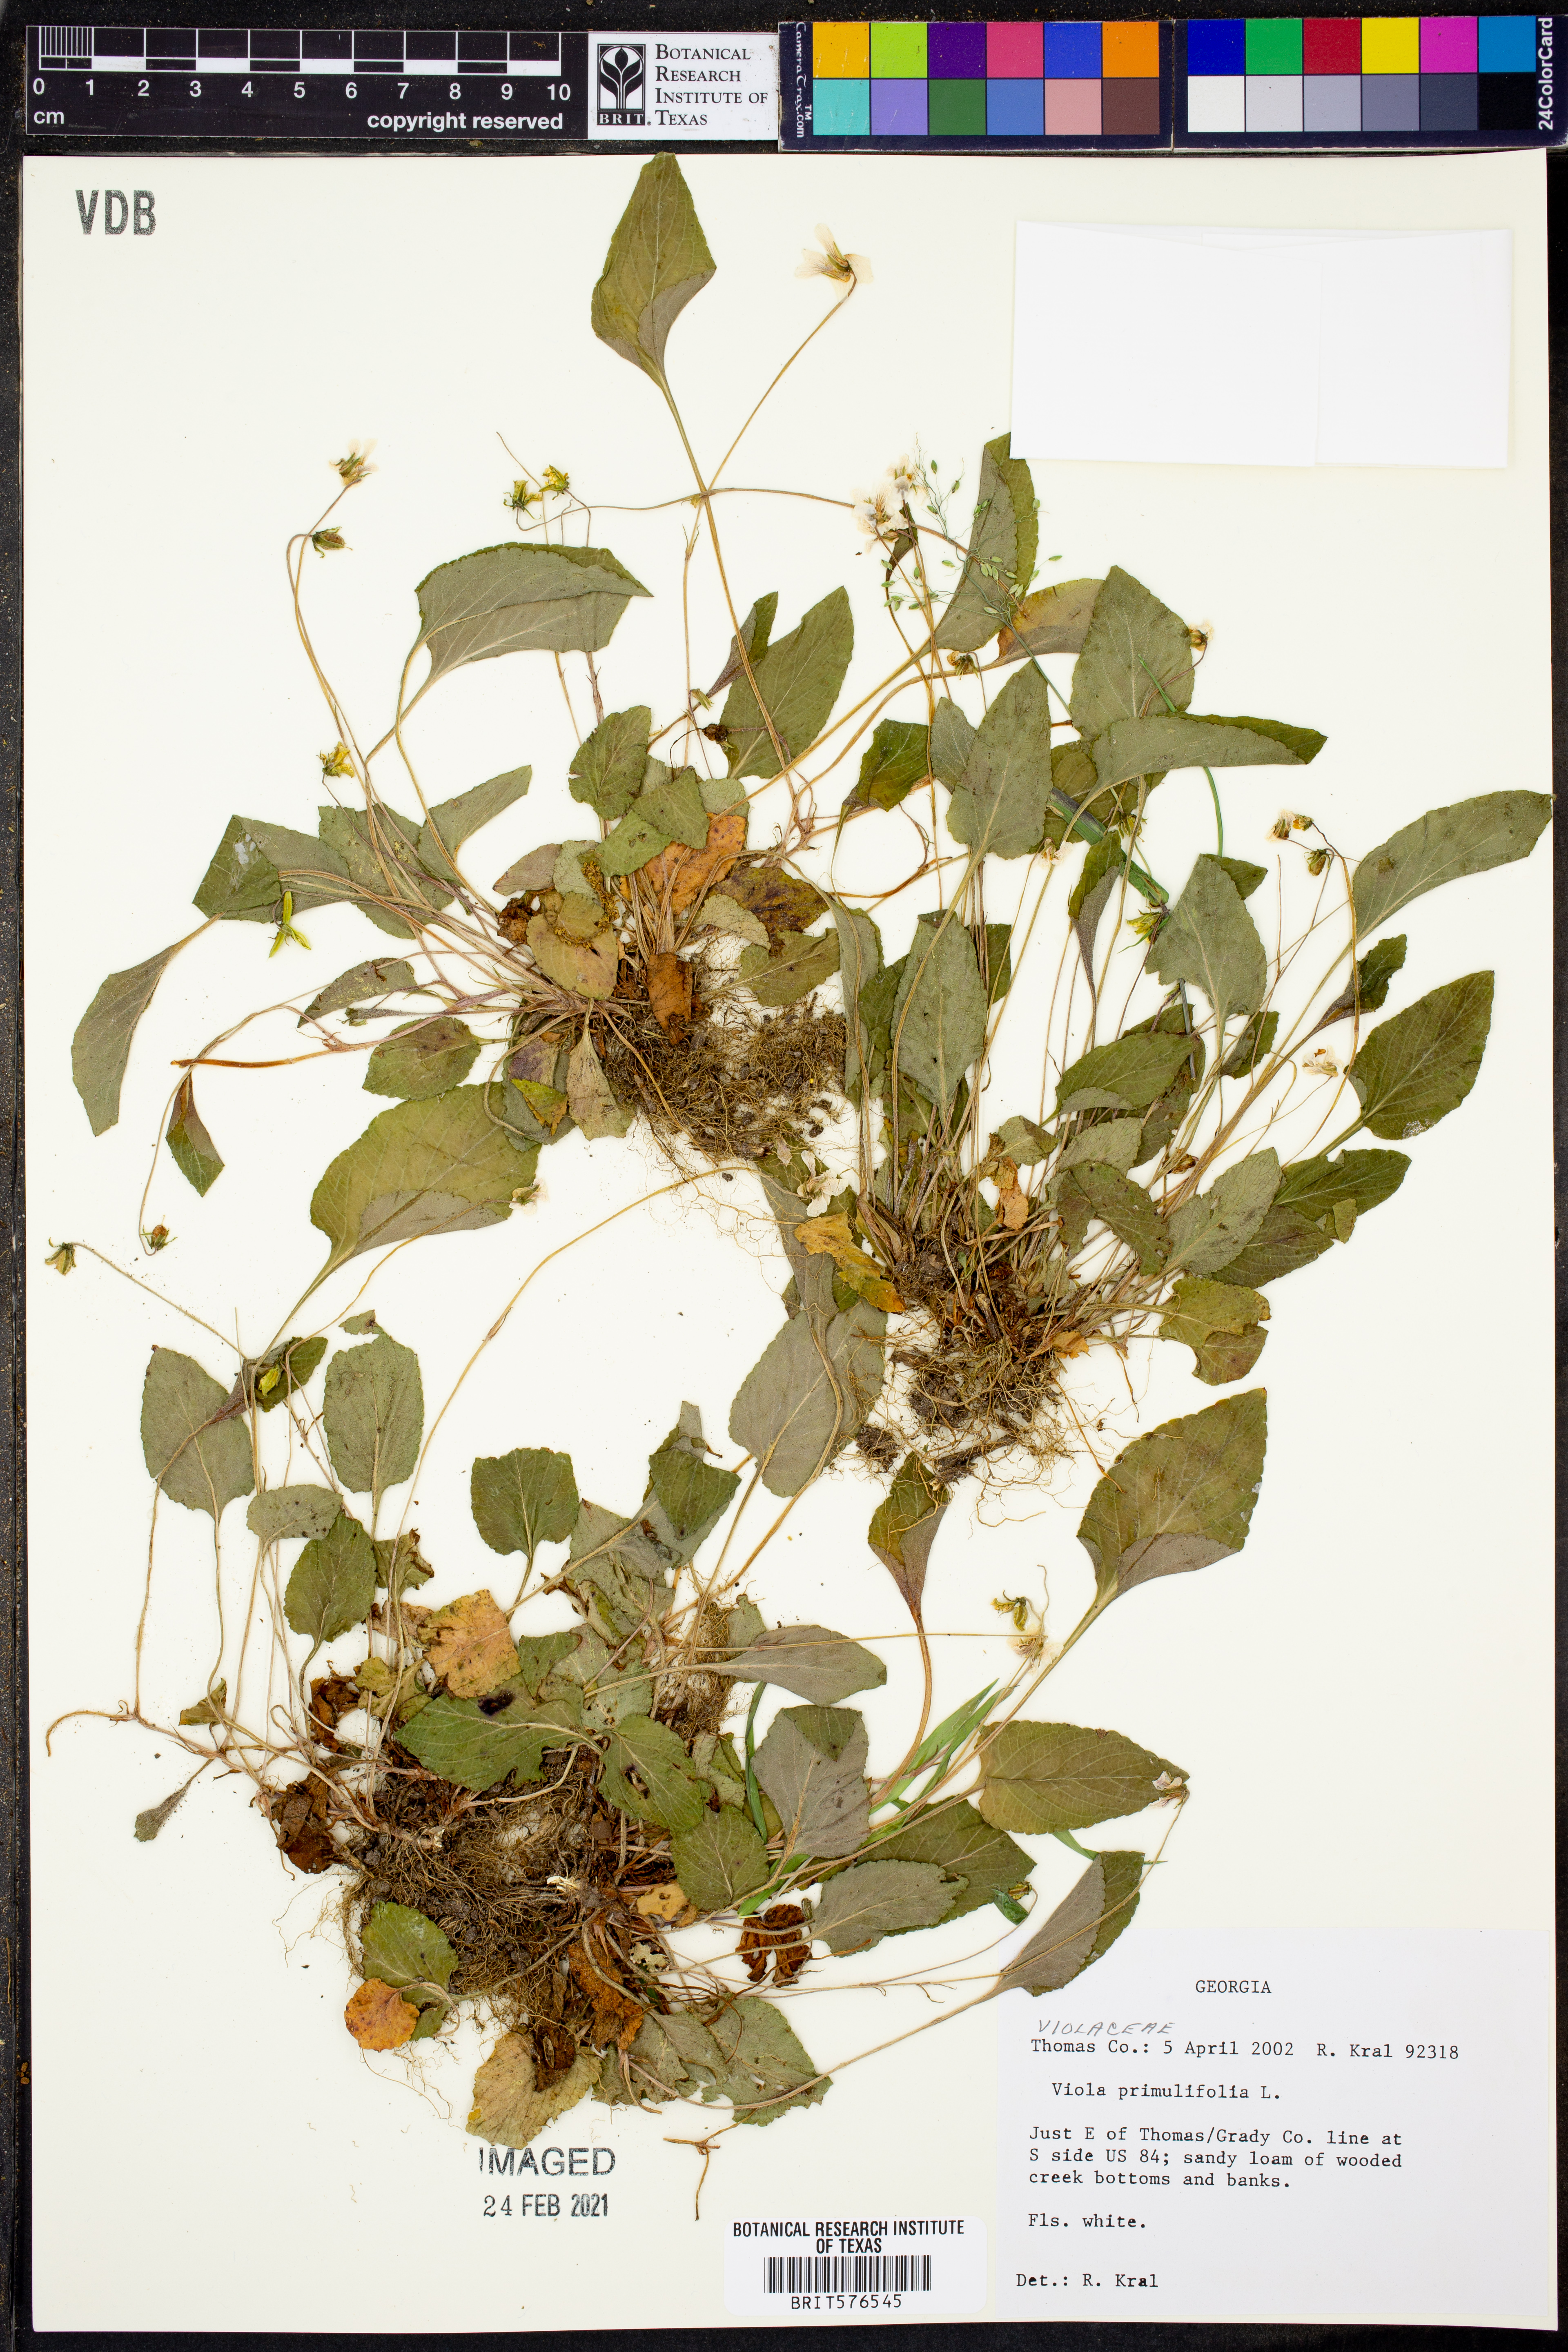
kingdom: Plantae
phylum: Tracheophyta
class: Magnoliopsida
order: Malpighiales
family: Violaceae
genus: Viola
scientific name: Viola primulifolia
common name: Primrose-leaf violet
